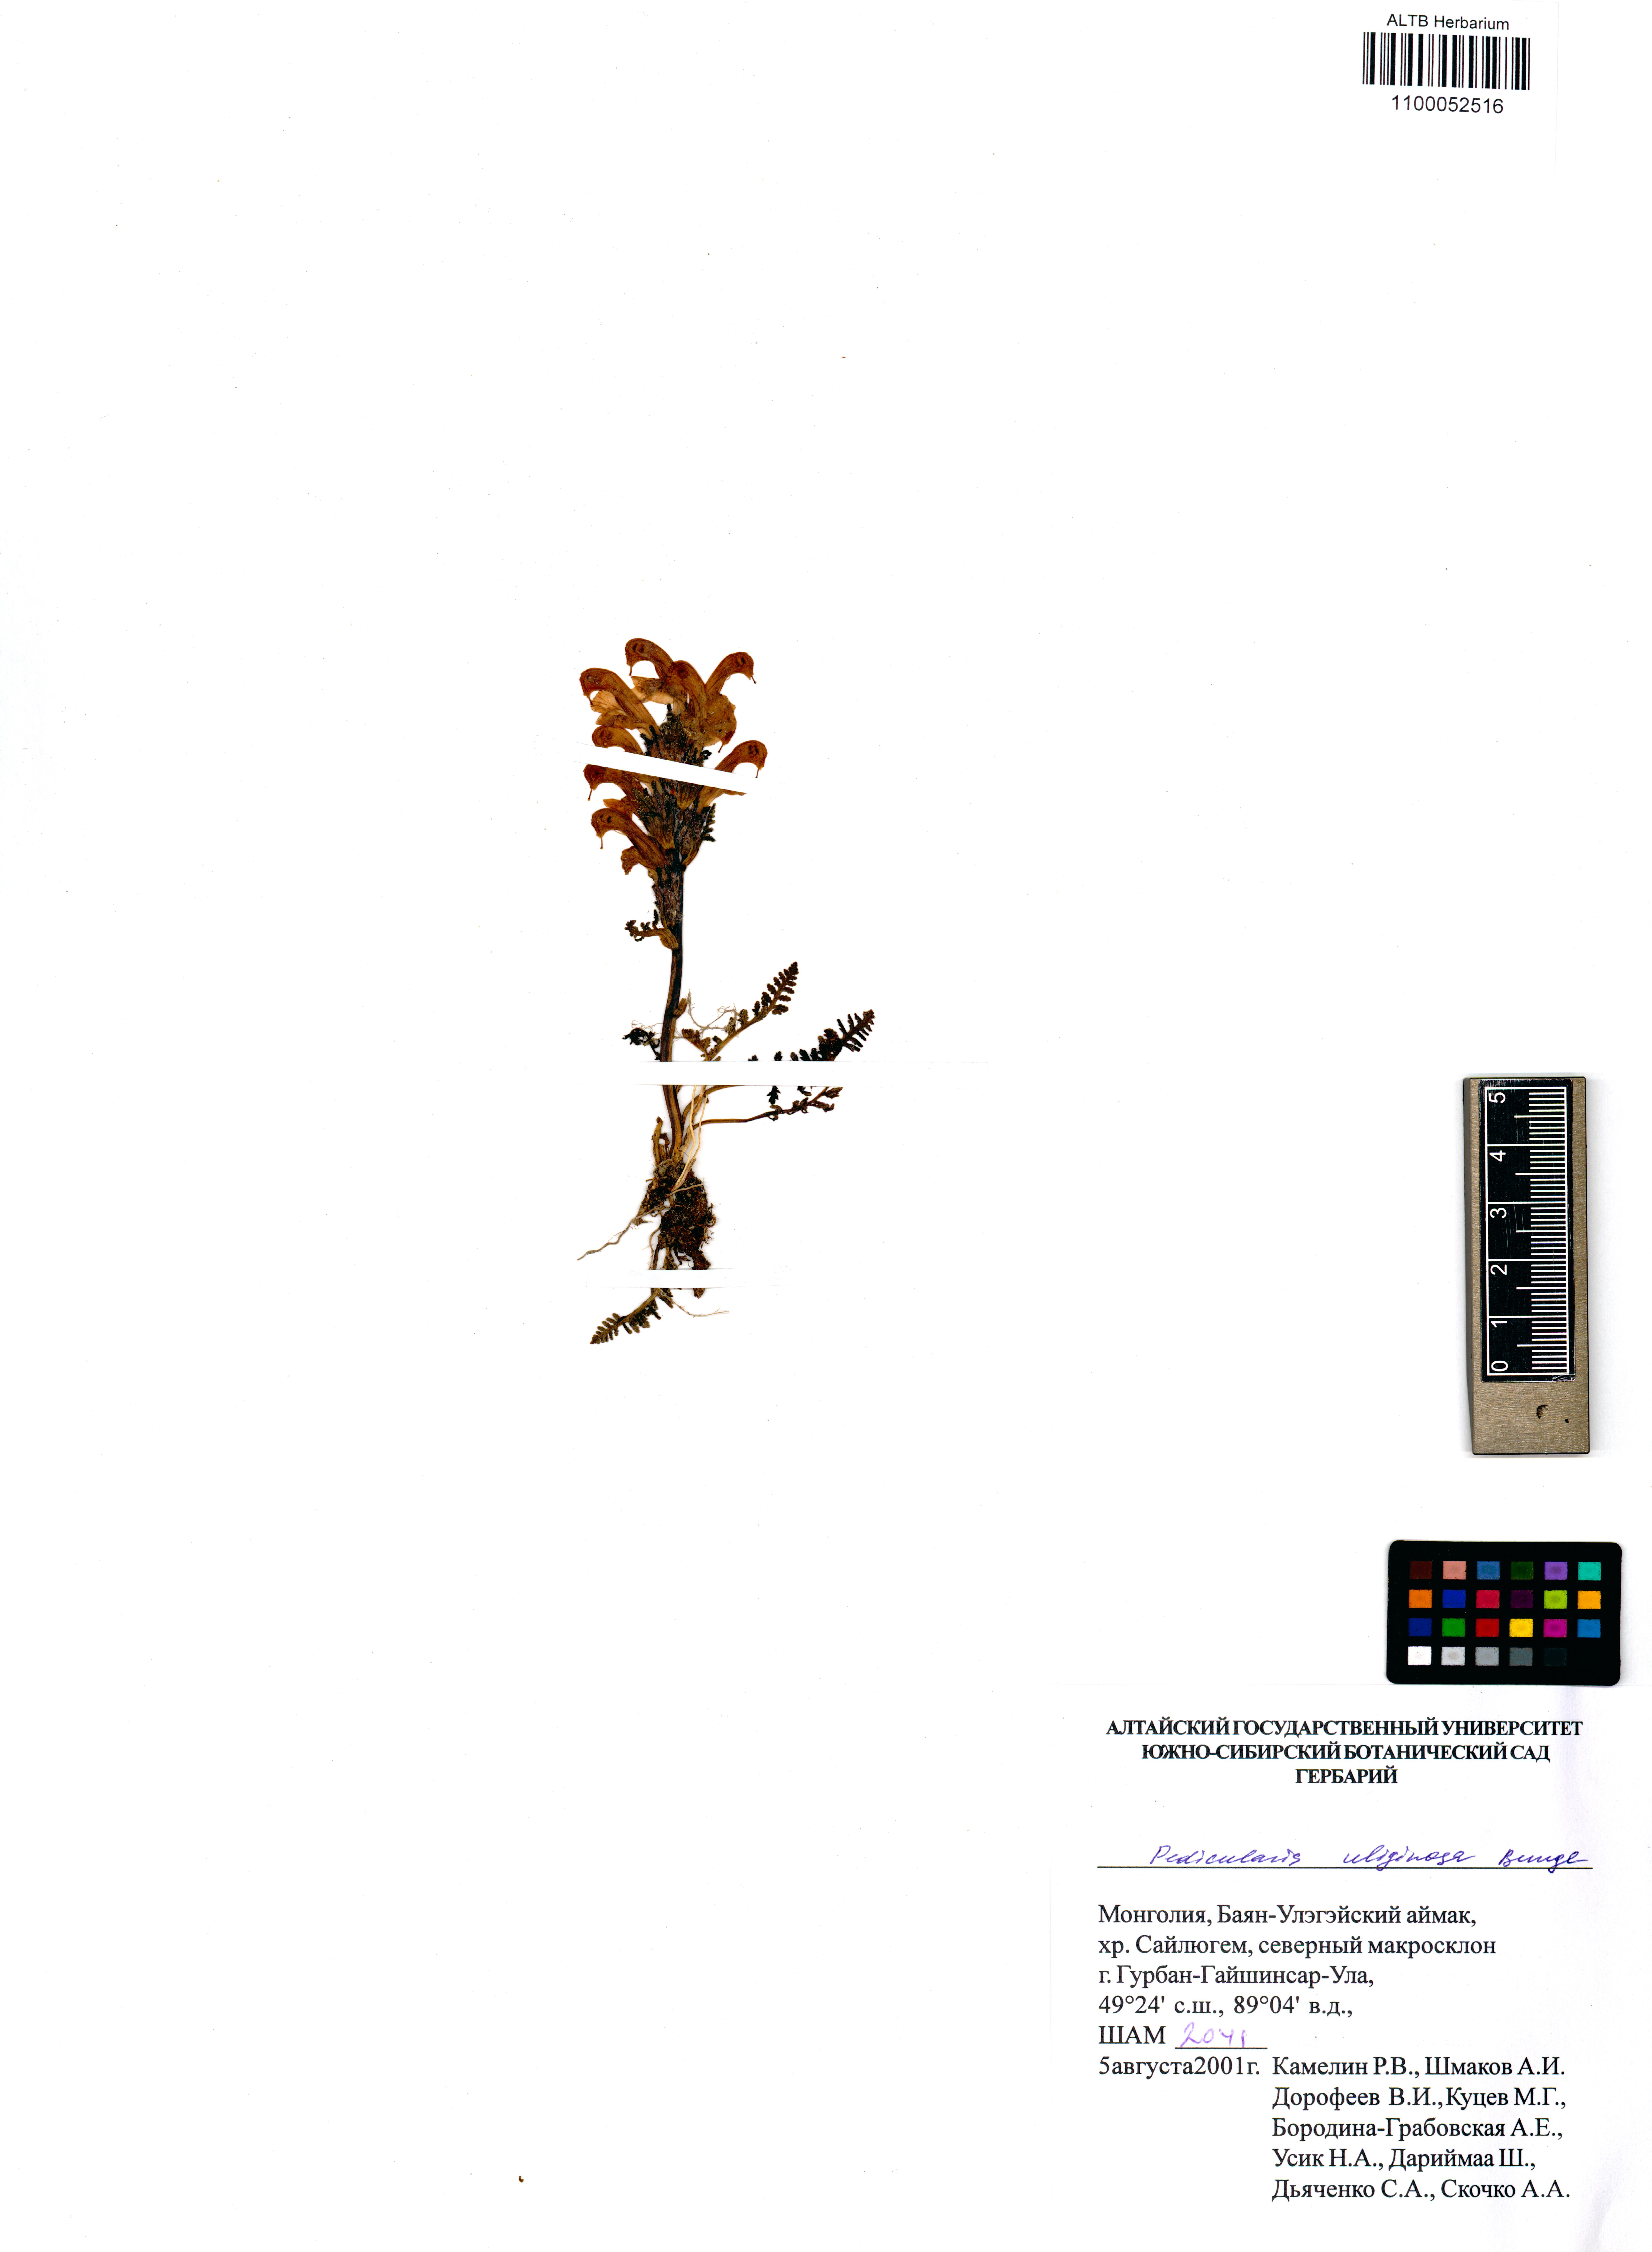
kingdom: Plantae
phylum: Tracheophyta
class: Magnoliopsida
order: Lamiales
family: Orobanchaceae
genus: Pedicularis
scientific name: Pedicularis uliginosa
